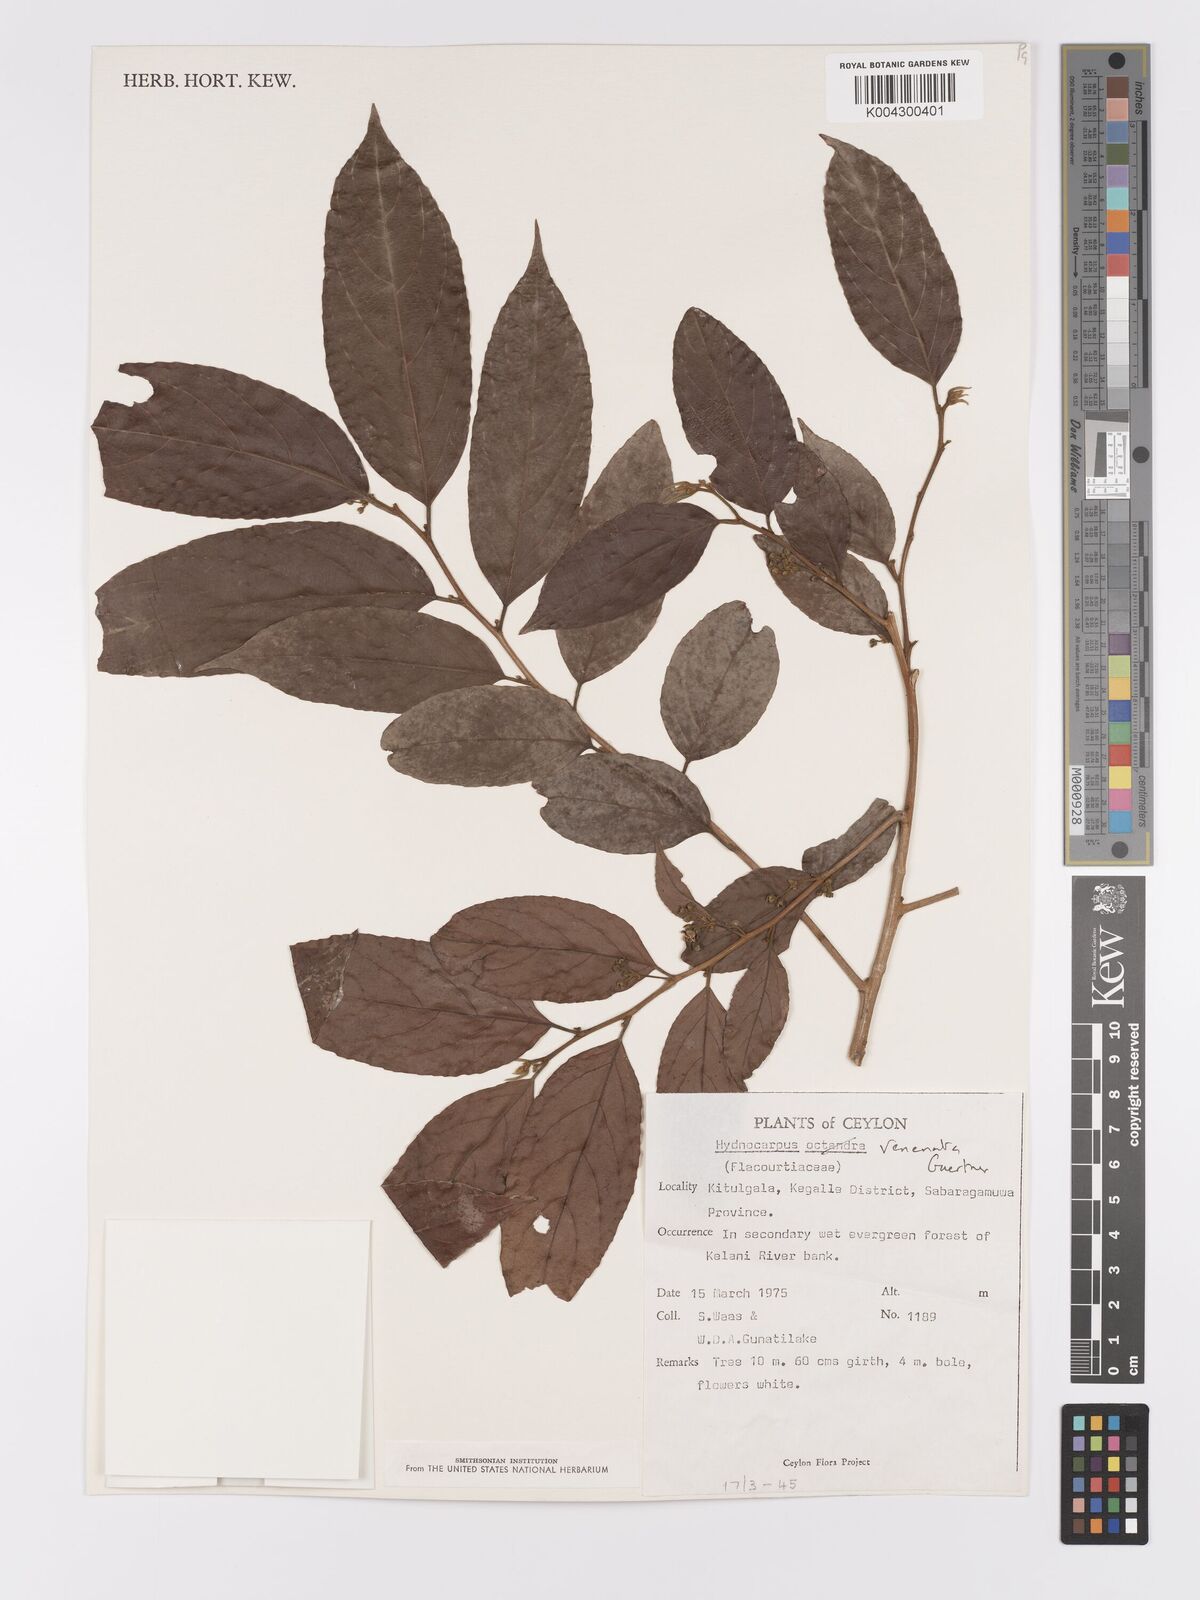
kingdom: Plantae
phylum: Tracheophyta
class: Magnoliopsida
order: Malpighiales
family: Achariaceae
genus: Hydnocarpus
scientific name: Hydnocarpus venenatus
